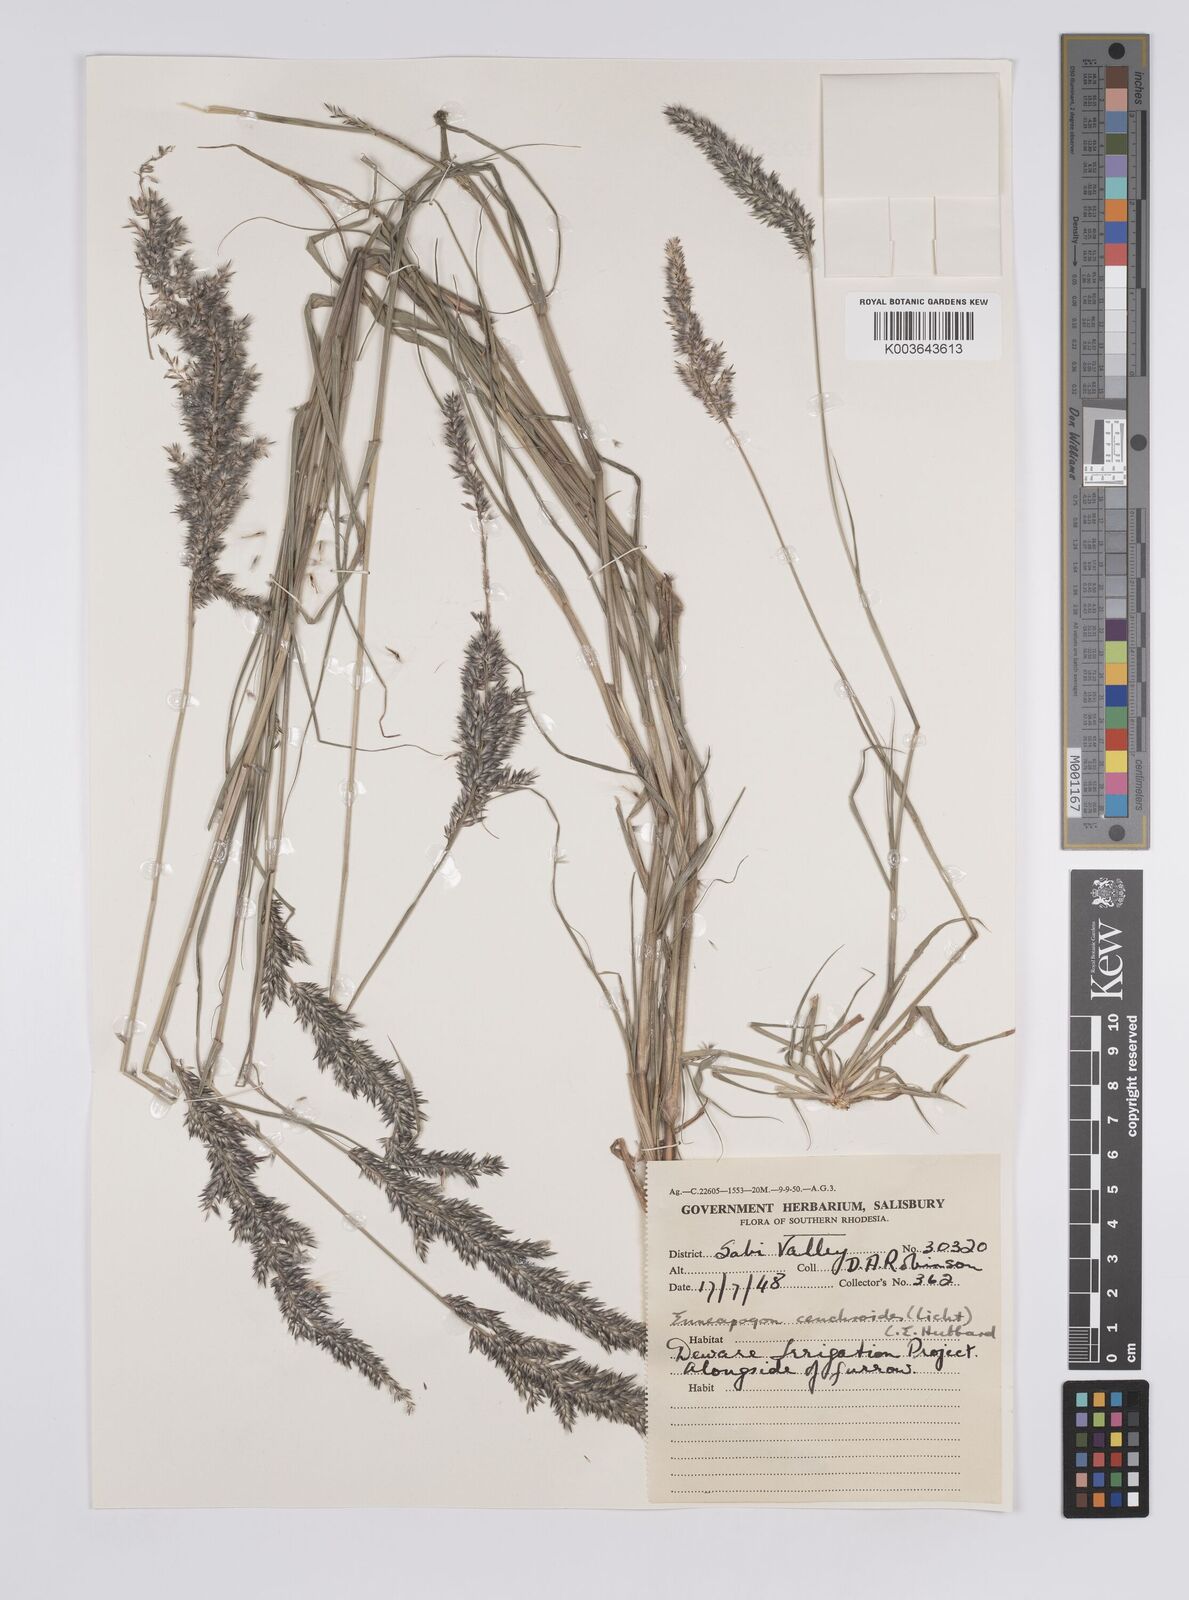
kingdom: Plantae
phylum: Tracheophyta
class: Liliopsida
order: Poales
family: Poaceae
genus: Enneapogon
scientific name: Enneapogon cenchroides
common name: Soft feather pappusgrass
